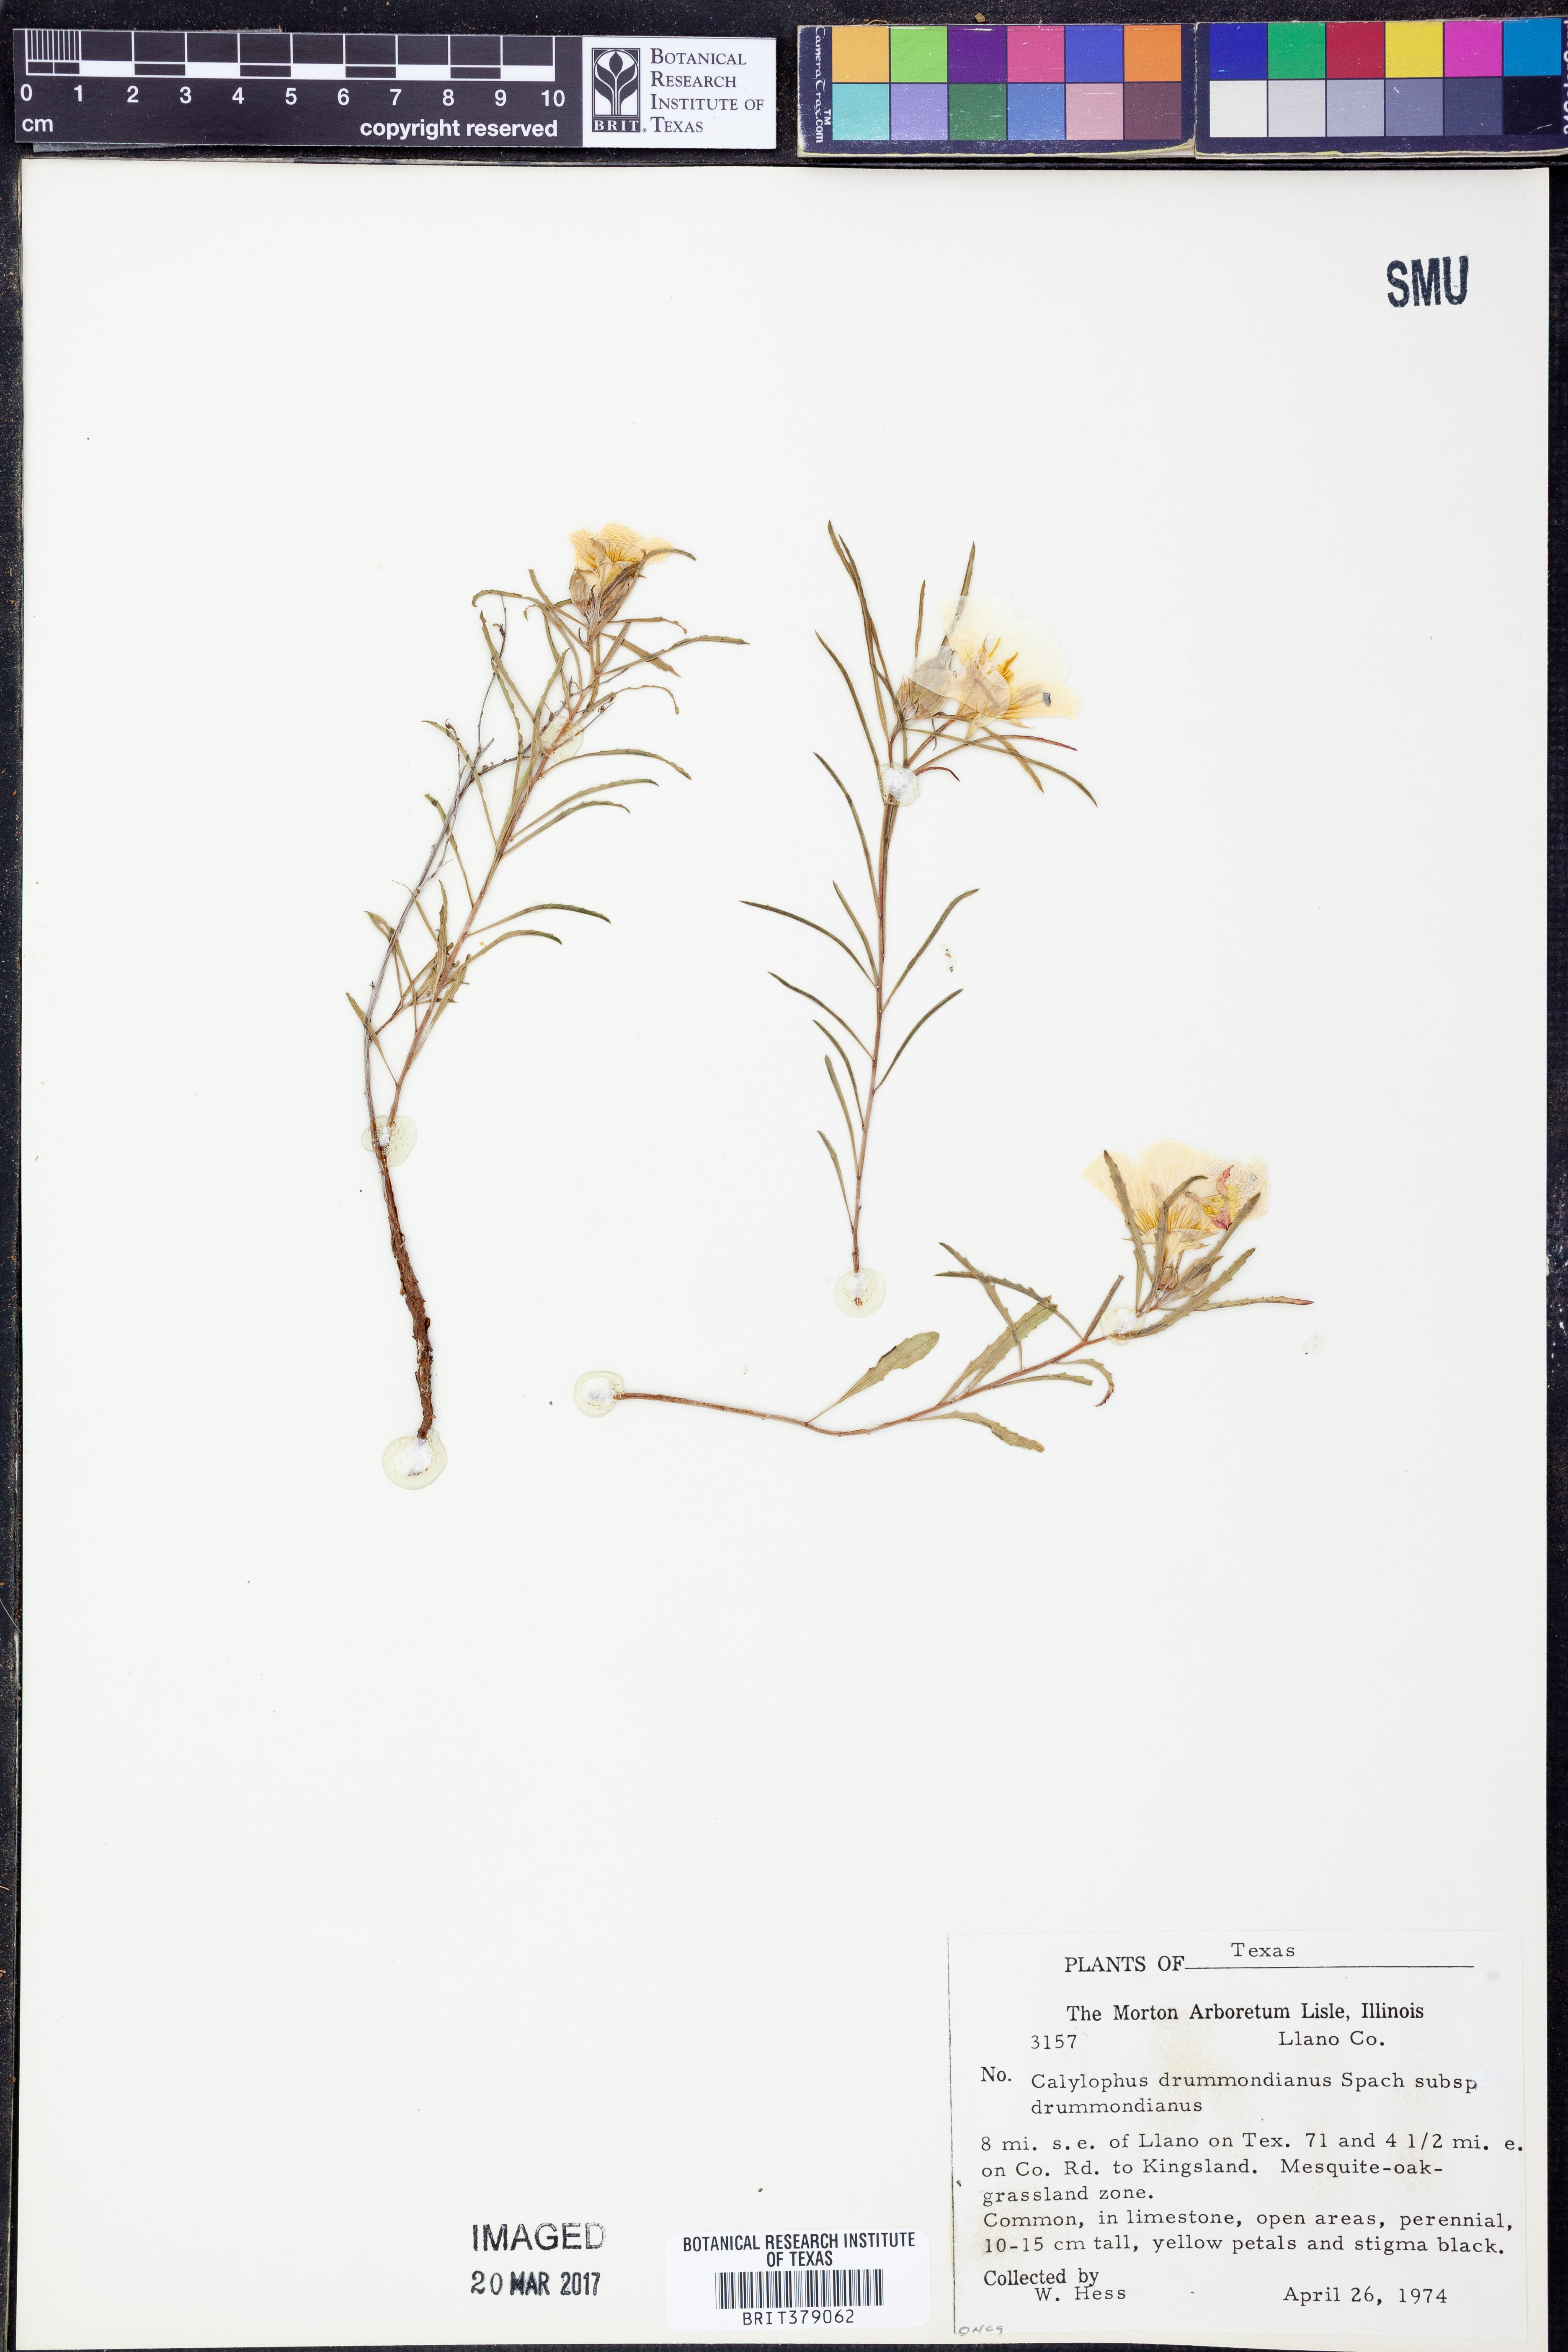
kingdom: Plantae
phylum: Tracheophyta
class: Magnoliopsida
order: Myrtales
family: Onagraceae
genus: Oenothera
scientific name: Oenothera serrulata
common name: Half-shrub calylophus
